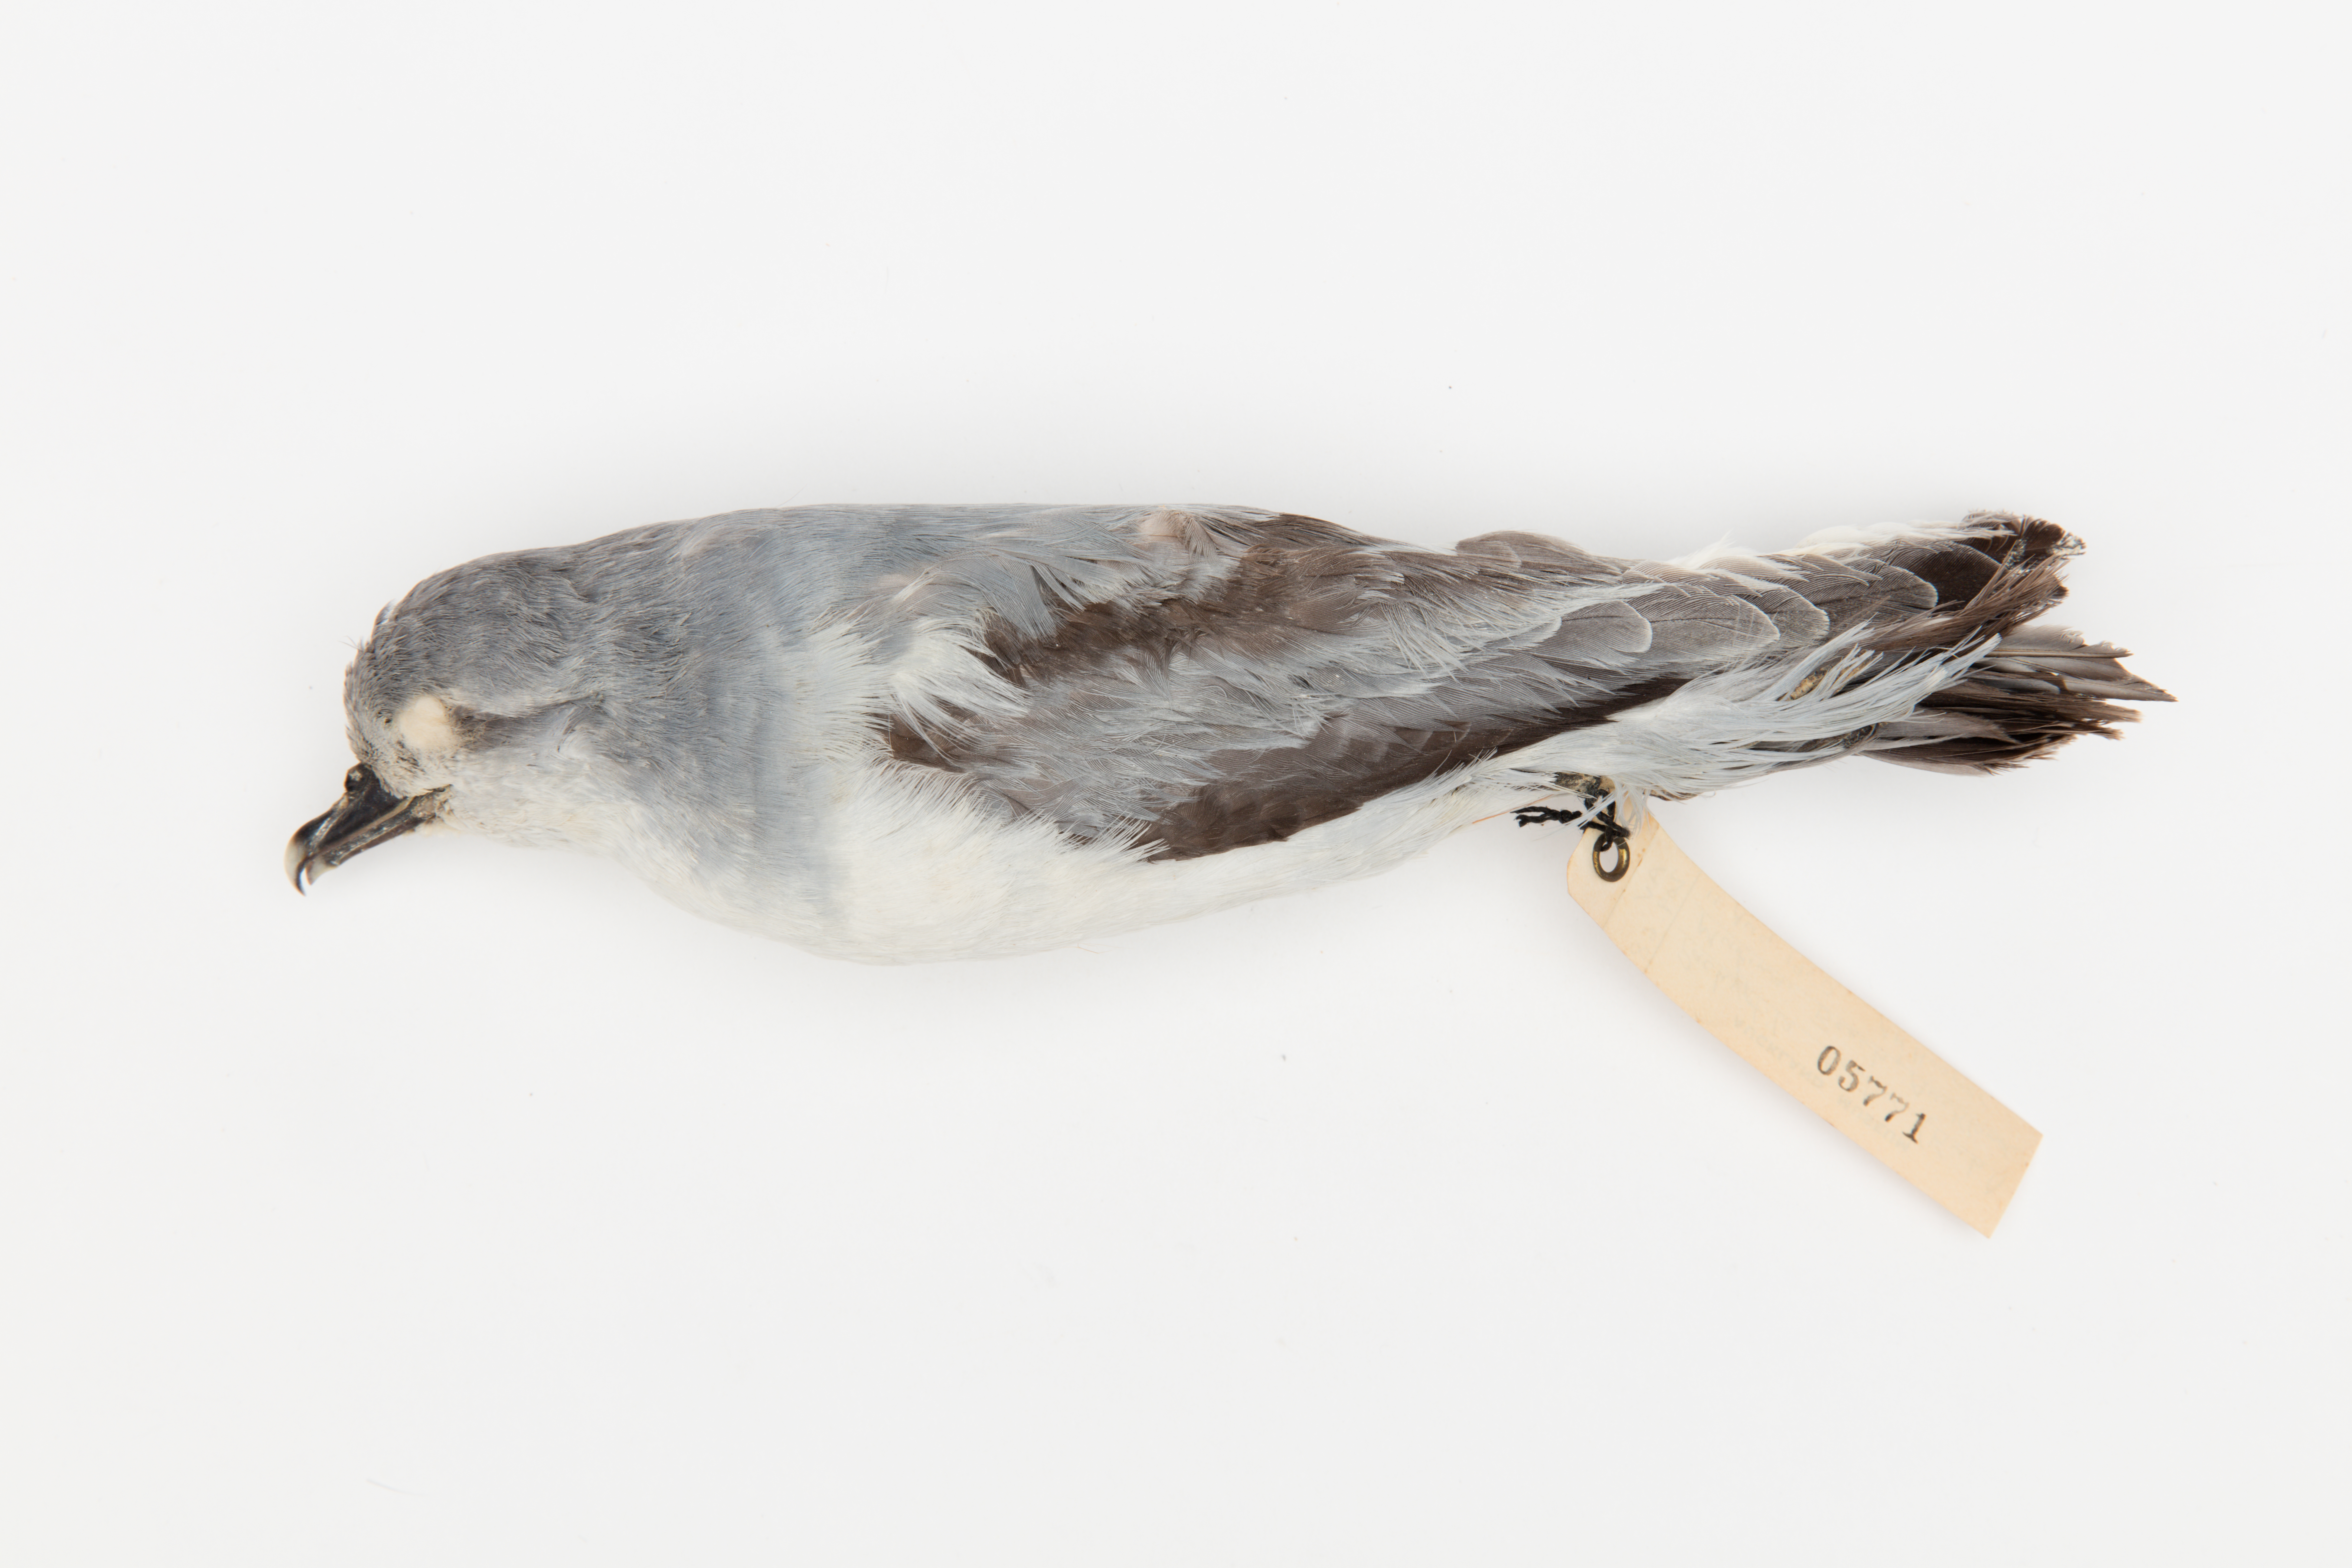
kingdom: Animalia
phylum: Chordata
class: Aves
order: Procellariiformes
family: Procellariidae
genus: Pachyptila
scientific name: Pachyptila turtur
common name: Fairy prion
